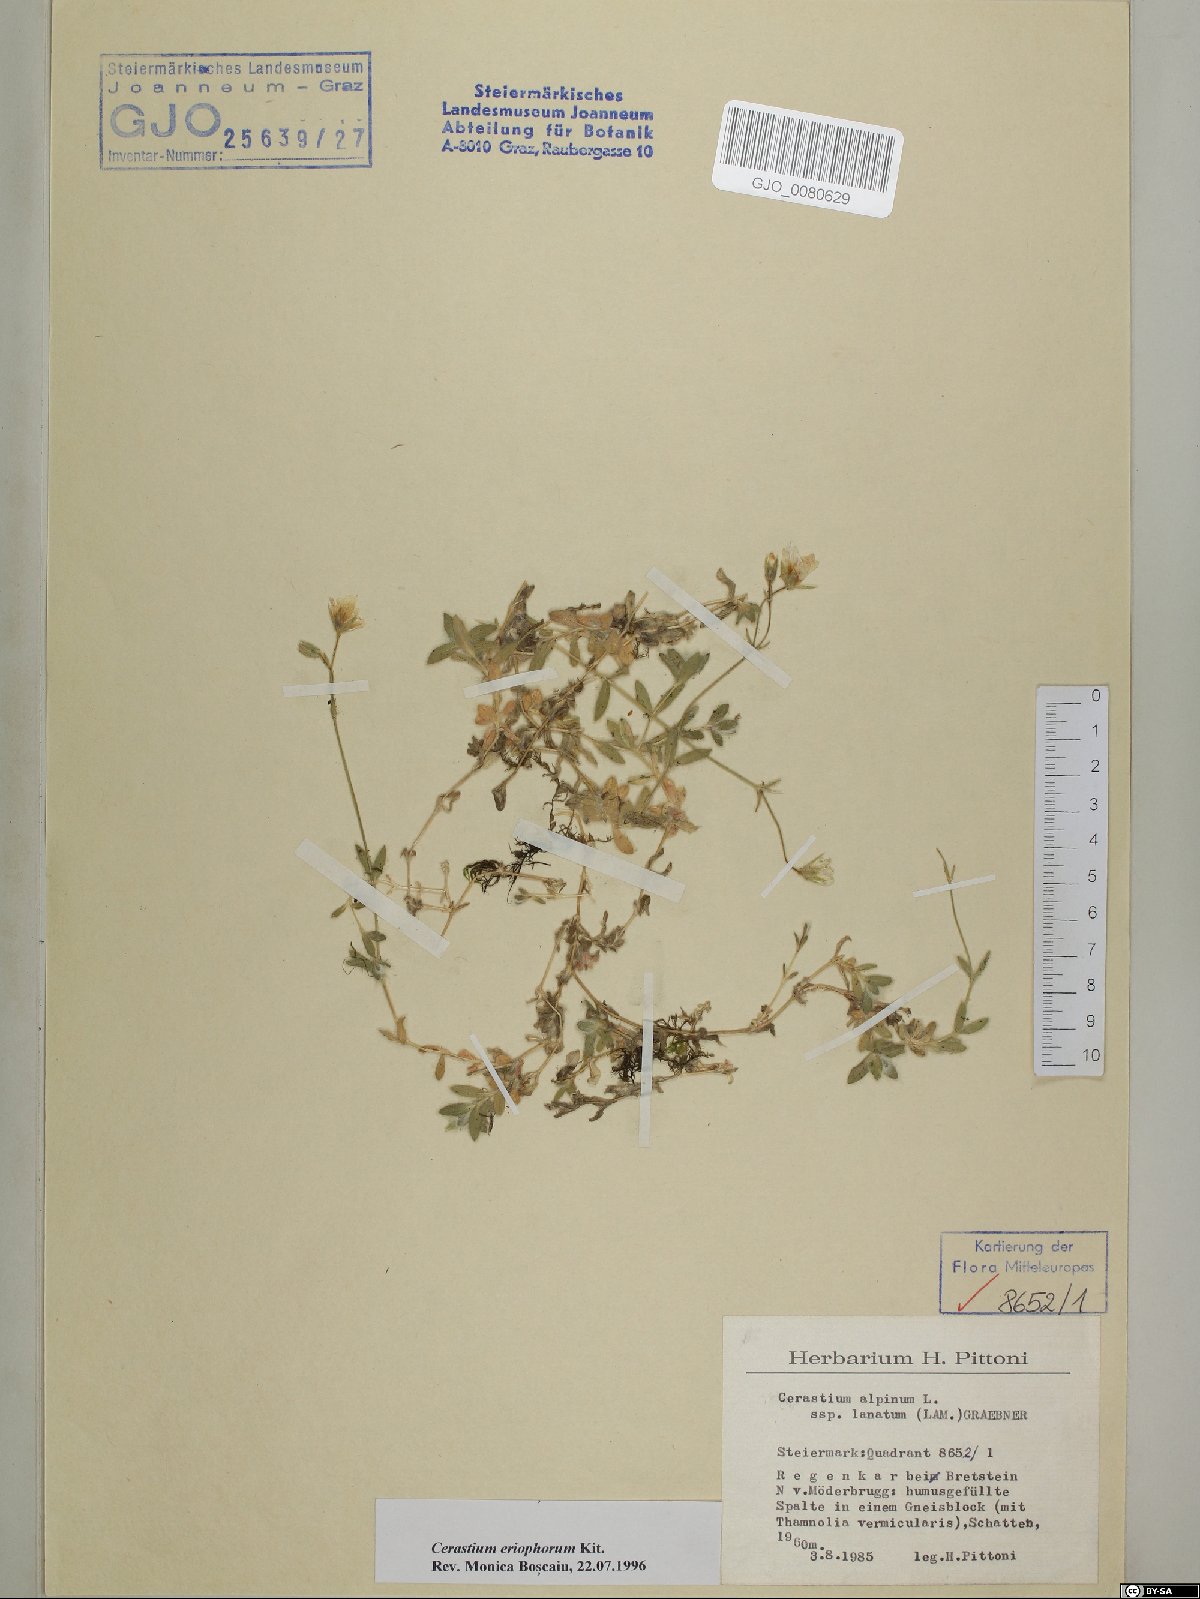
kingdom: Plantae
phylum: Tracheophyta
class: Magnoliopsida
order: Caryophyllales
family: Caryophyllaceae
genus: Cerastium
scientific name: Cerastium eriophorum
